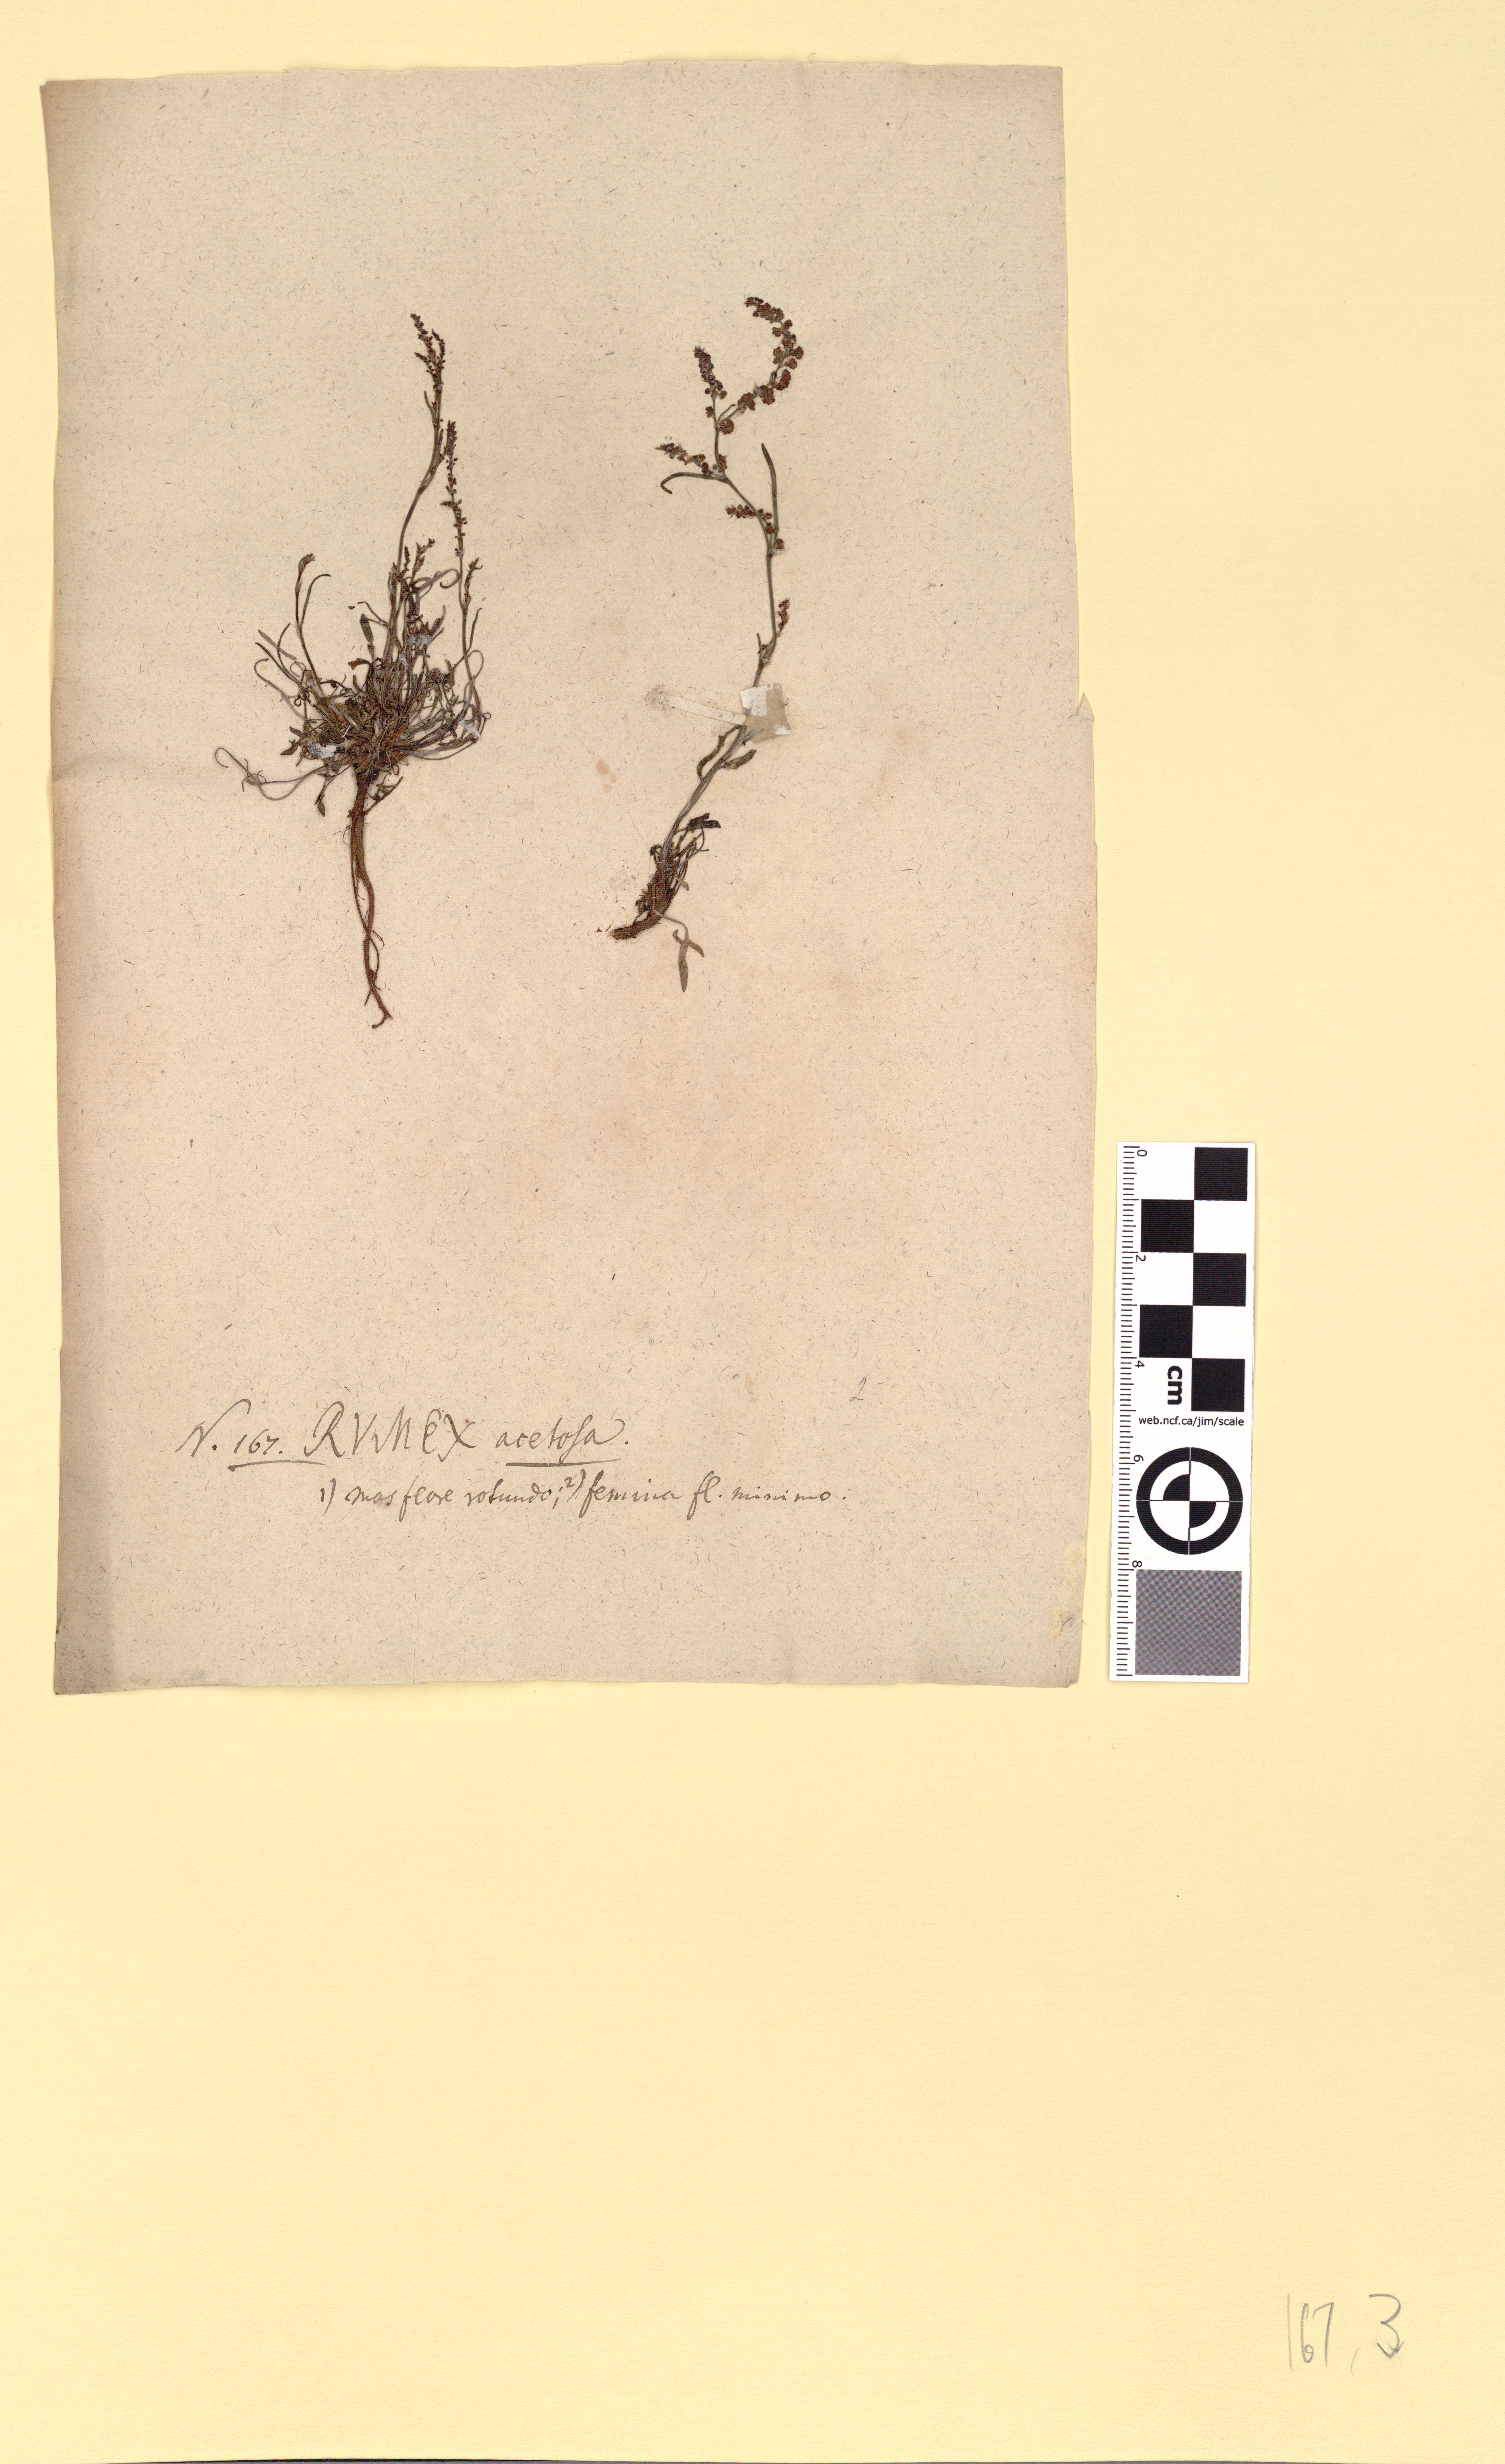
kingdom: Plantae
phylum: Tracheophyta
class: Magnoliopsida
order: Caryophyllales
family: Polygonaceae
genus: Rumex
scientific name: Rumex acetosella
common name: Common sheep sorrel
